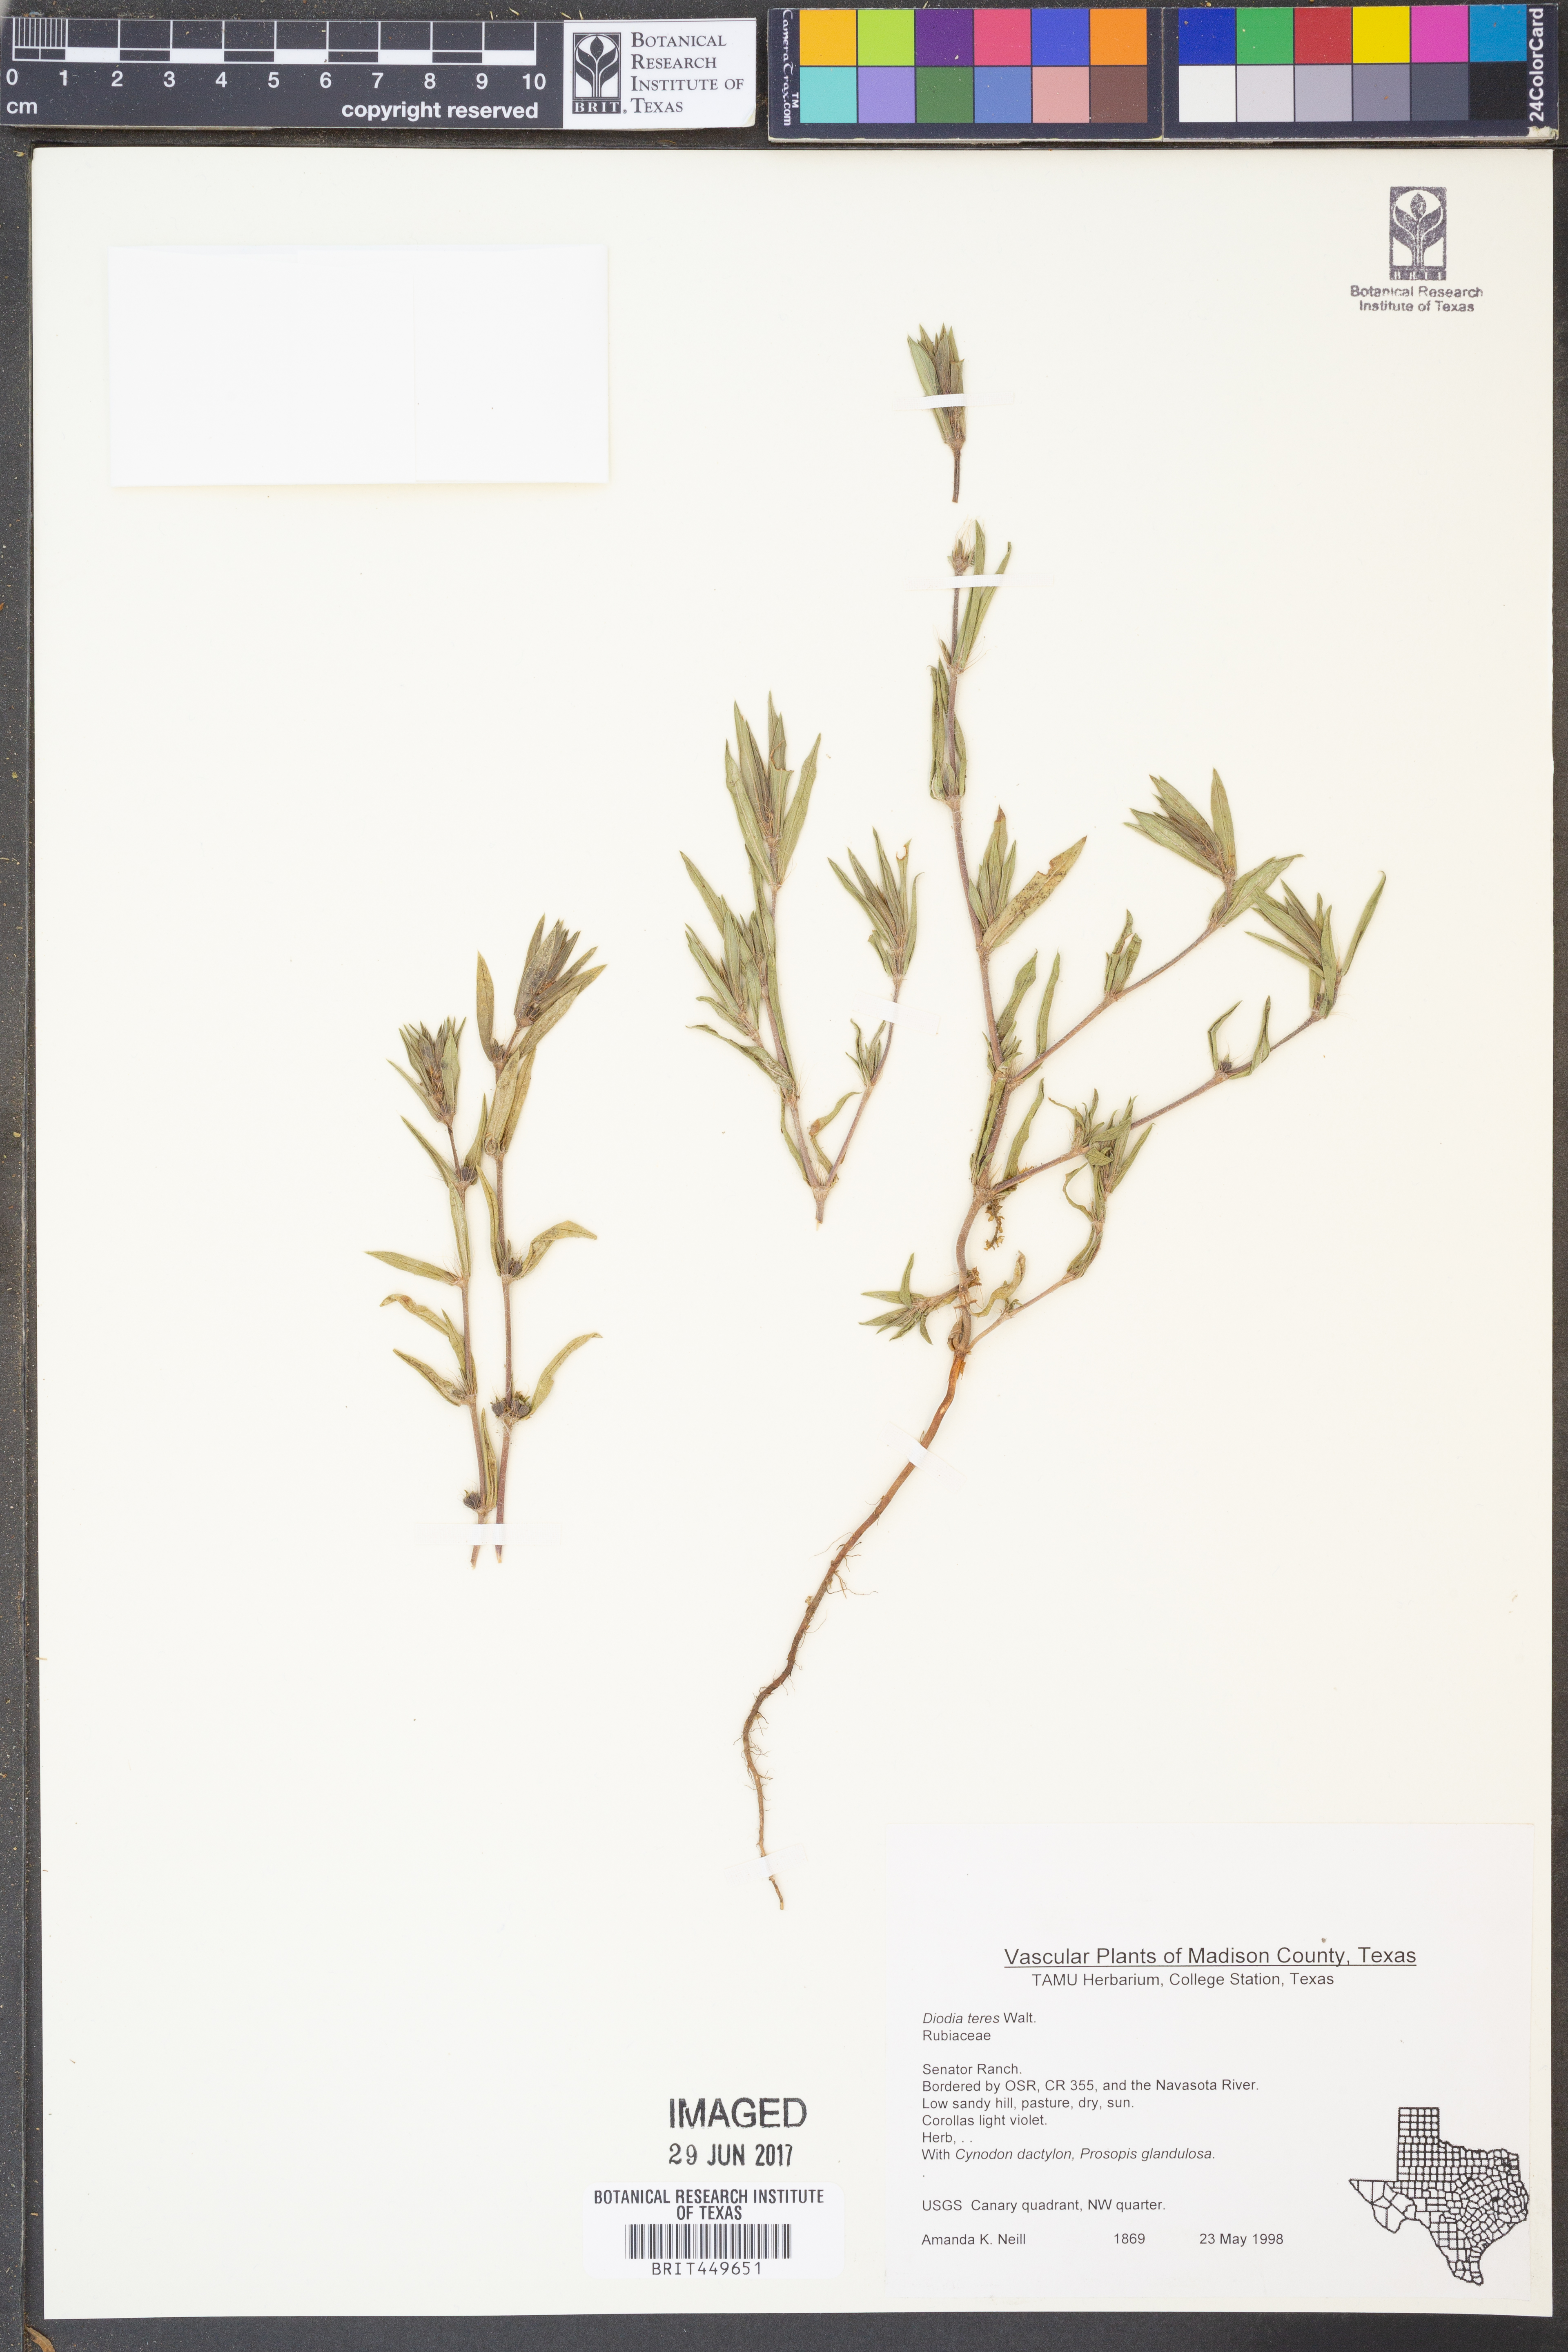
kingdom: Plantae
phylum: Tracheophyta
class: Magnoliopsida
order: Gentianales
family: Rubiaceae
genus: Hexasepalum
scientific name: Hexasepalum teres
